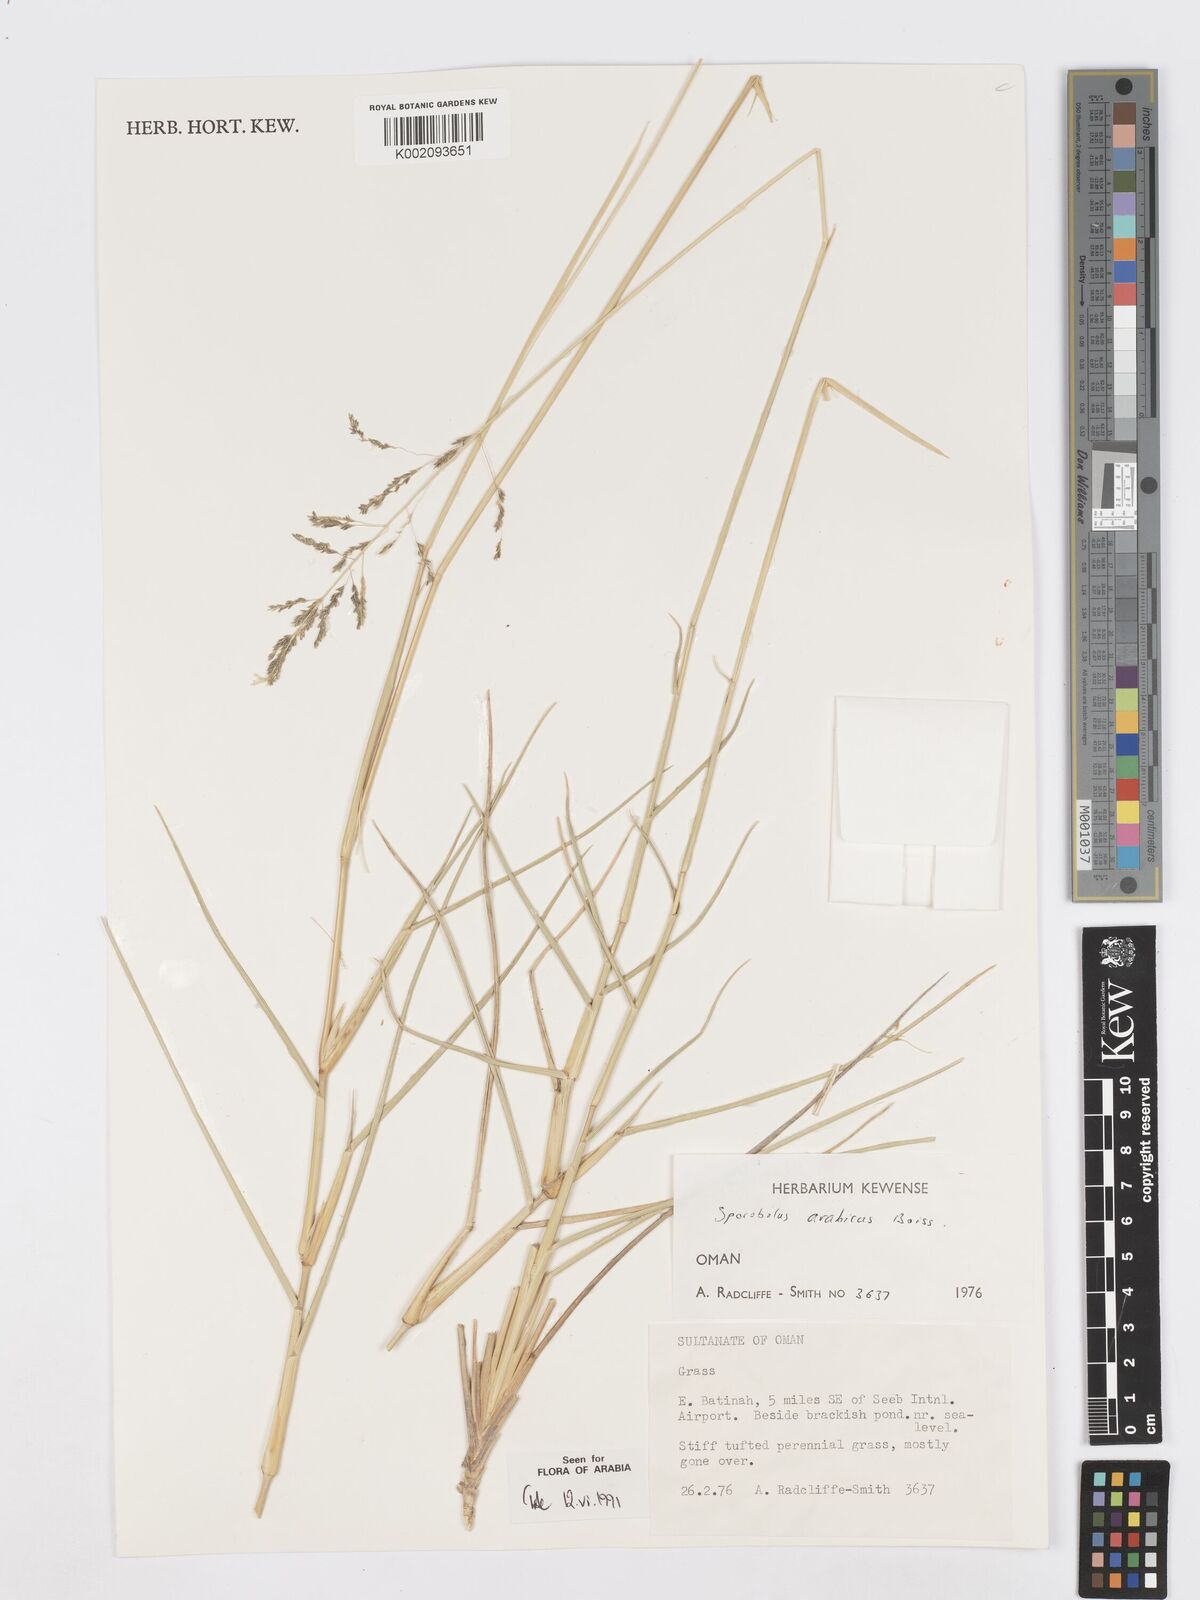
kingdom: Plantae
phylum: Tracheophyta
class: Liliopsida
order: Poales
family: Poaceae
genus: Sporobolus
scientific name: Sporobolus ioclados
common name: Pan dropseed
